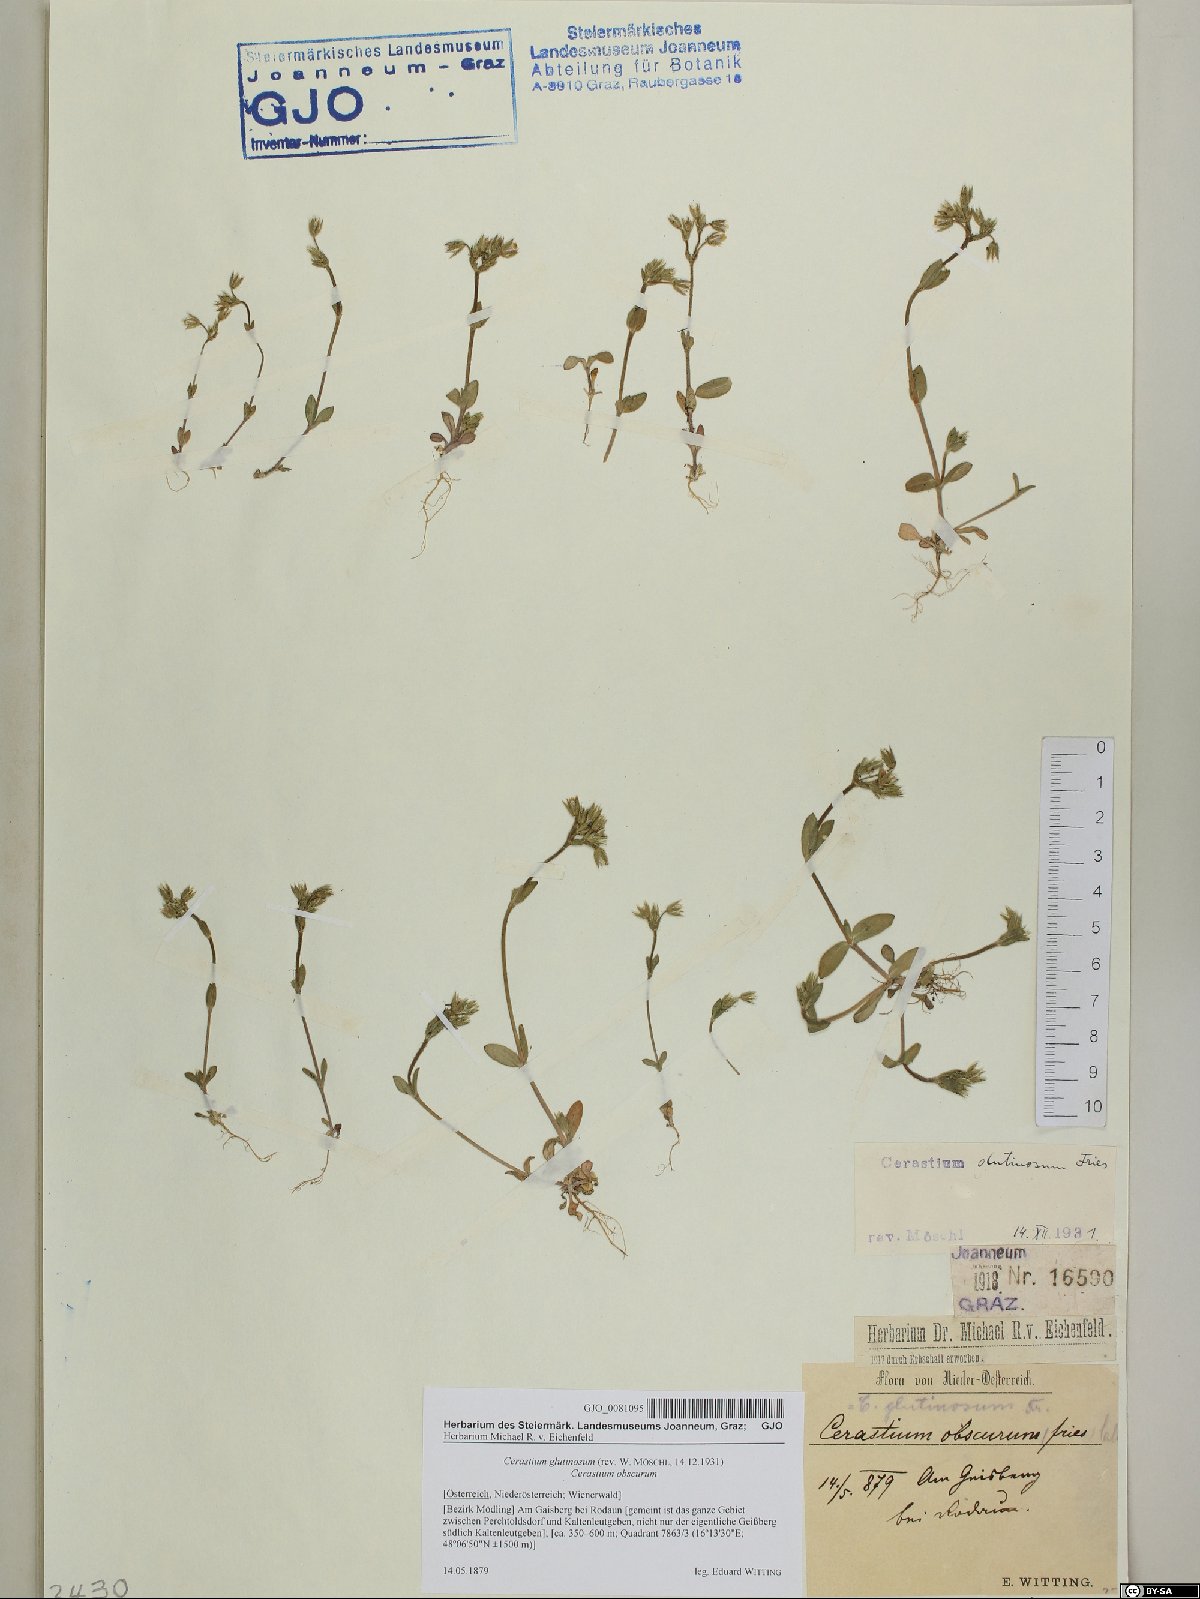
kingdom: Plantae
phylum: Tracheophyta
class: Magnoliopsida
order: Caryophyllales
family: Caryophyllaceae
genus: Cerastium
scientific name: Cerastium glutinosum
